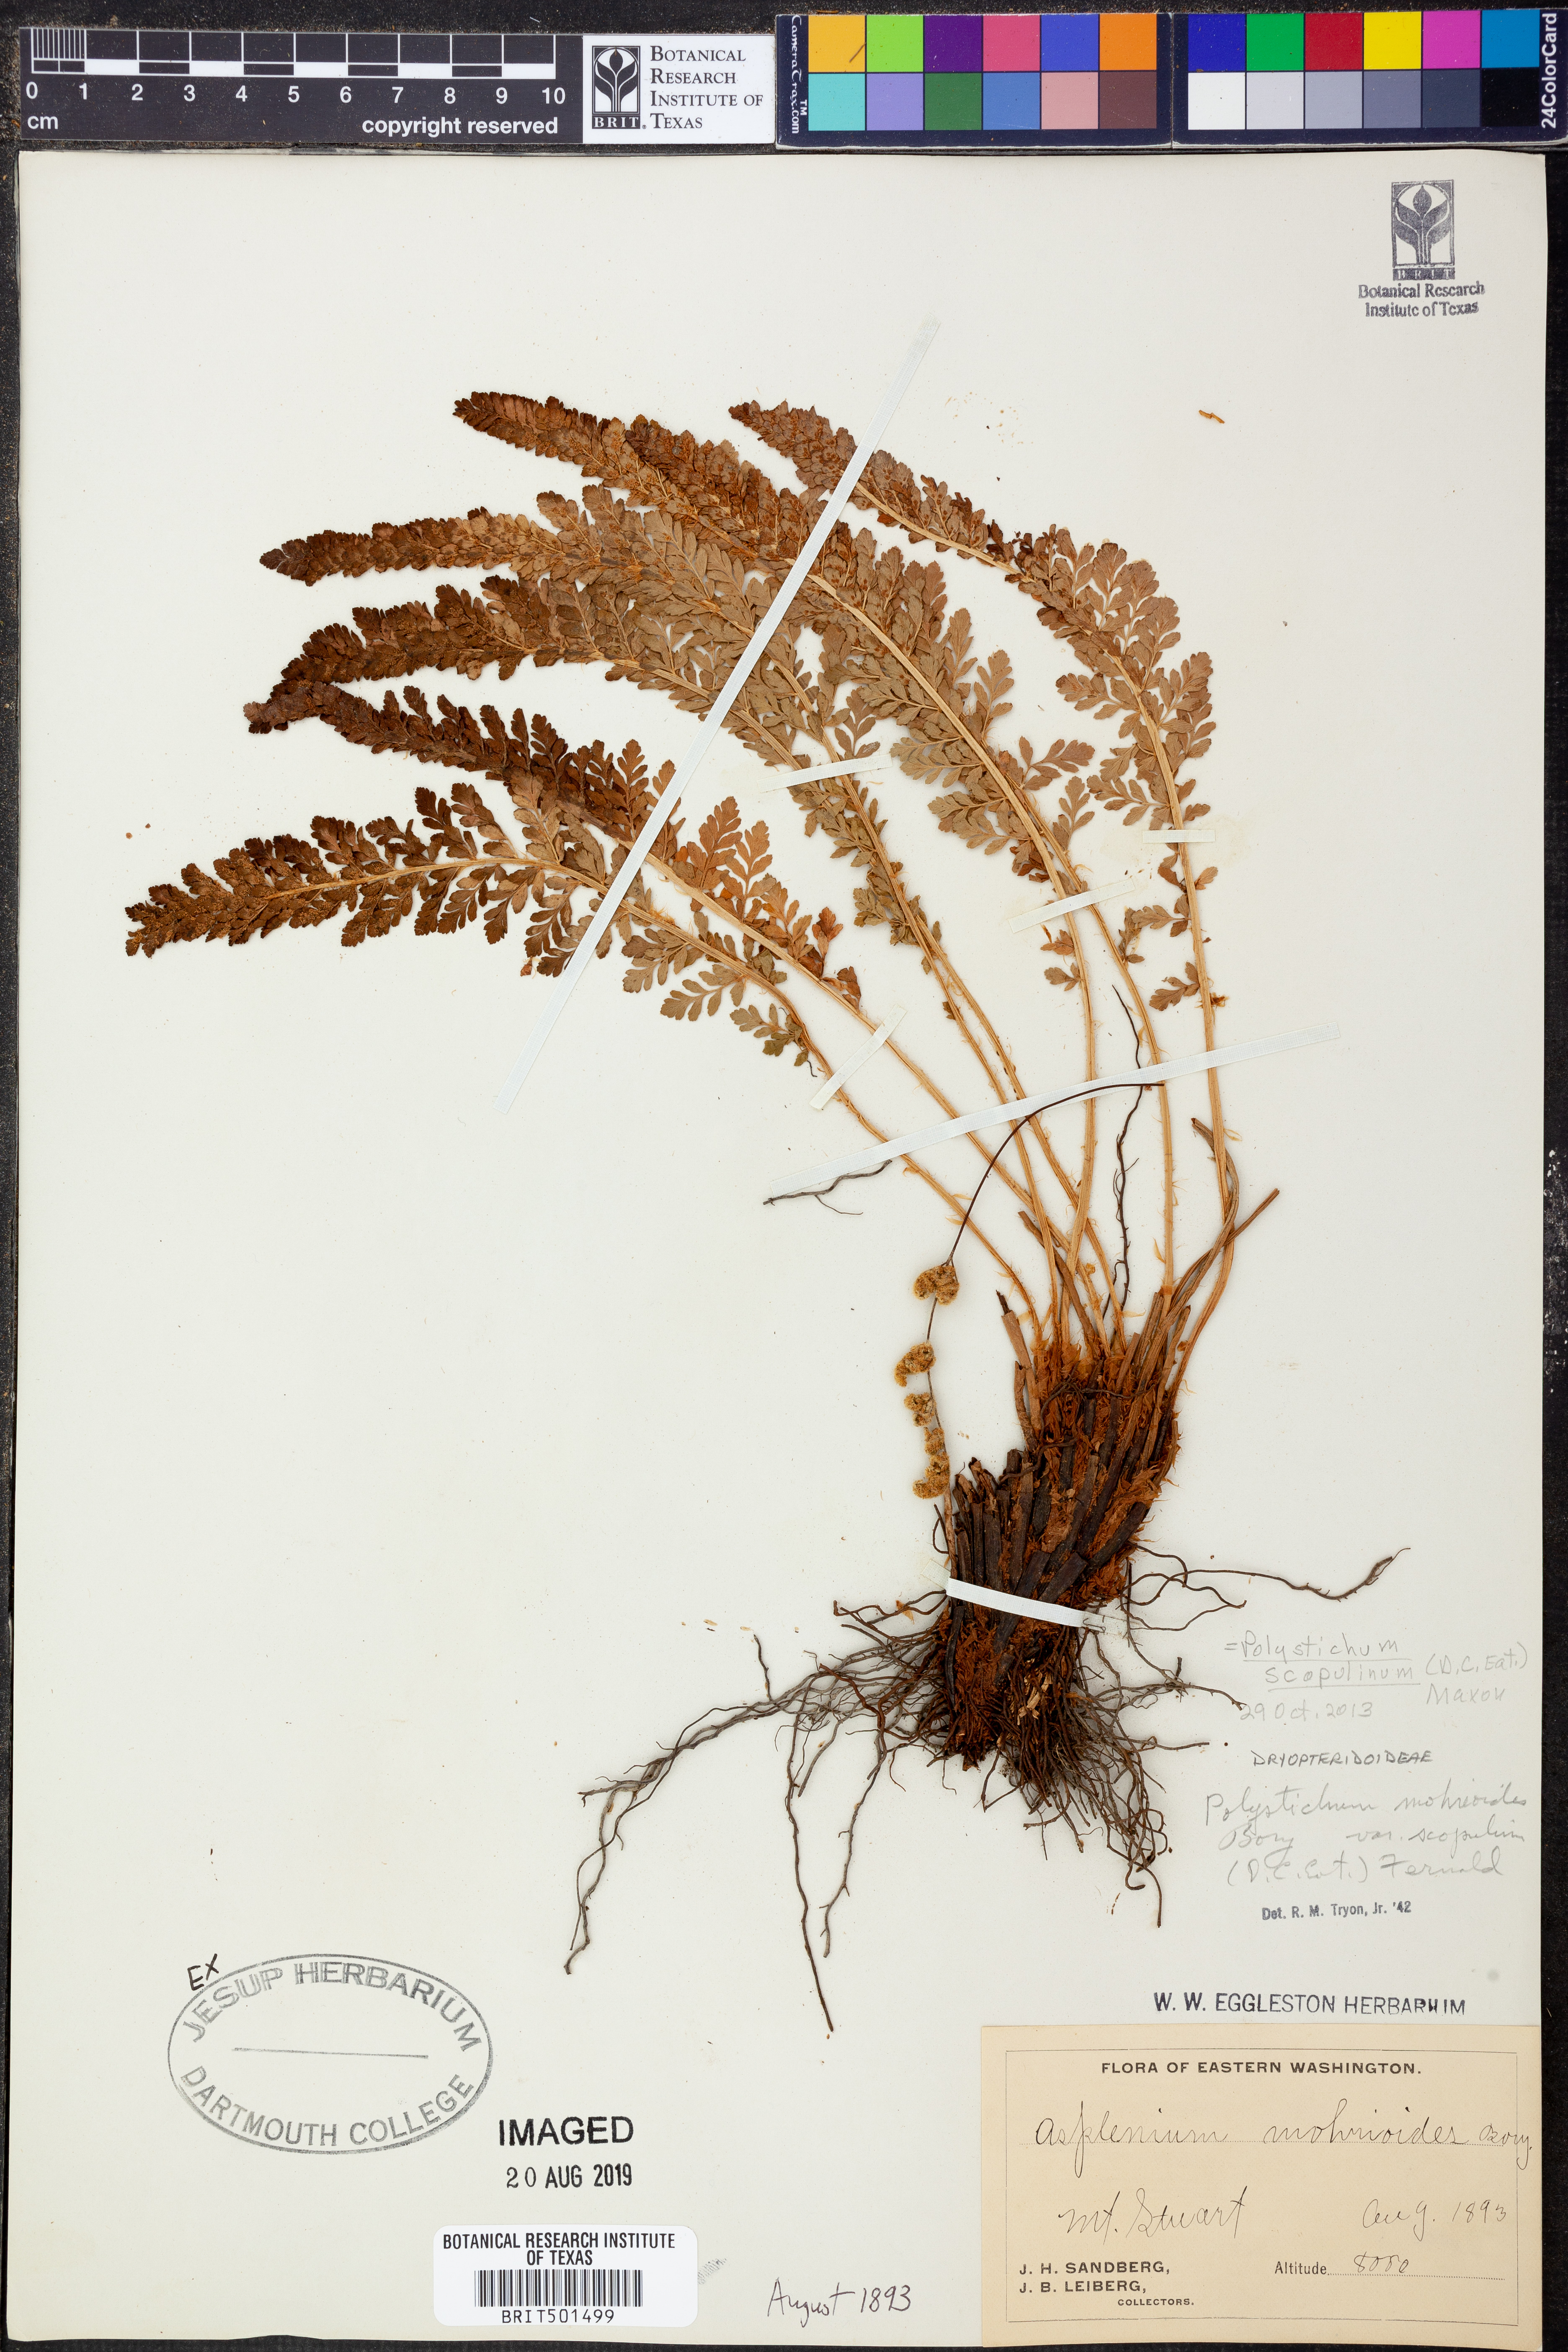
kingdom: Plantae
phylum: Tracheophyta
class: Polypodiopsida
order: Polypodiales
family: Dryopteridaceae
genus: Polystichum
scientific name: Polystichum scopulinum
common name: Eaton's shield fern
